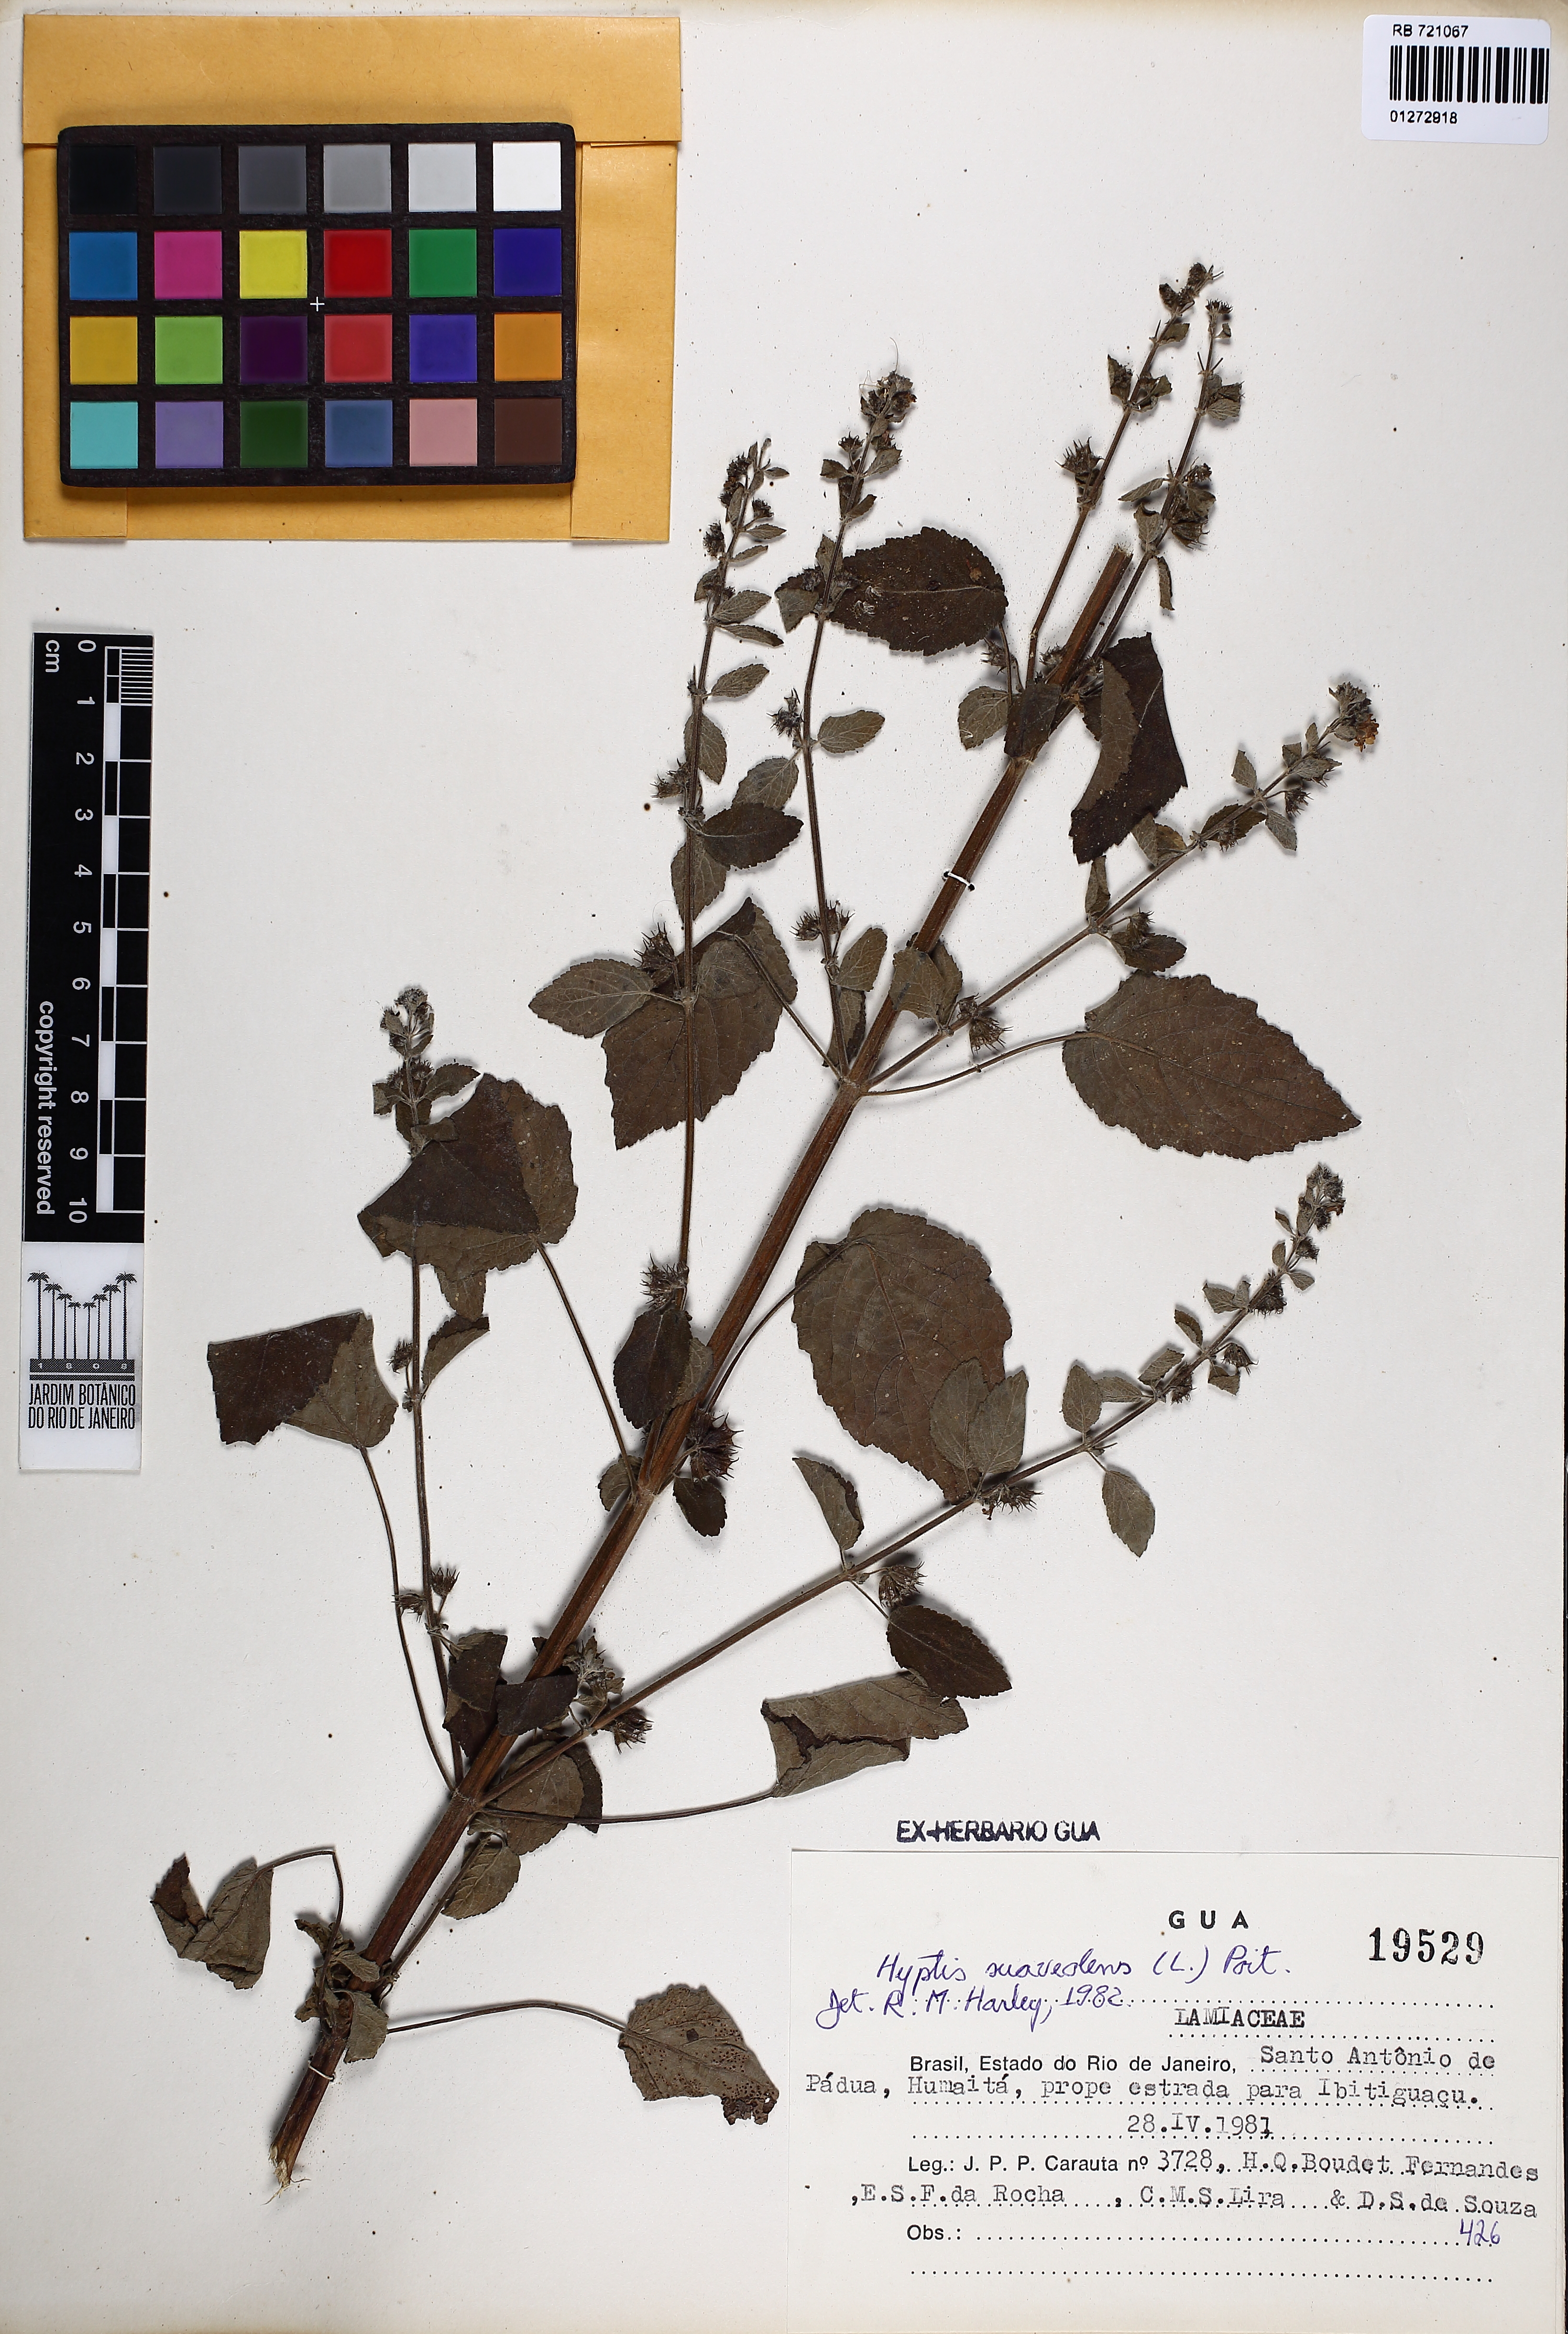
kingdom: Plantae
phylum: Tracheophyta
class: Magnoliopsida
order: Lamiales
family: Lamiaceae
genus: Mesosphaerum
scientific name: Mesosphaerum suaveolens
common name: Pignut
